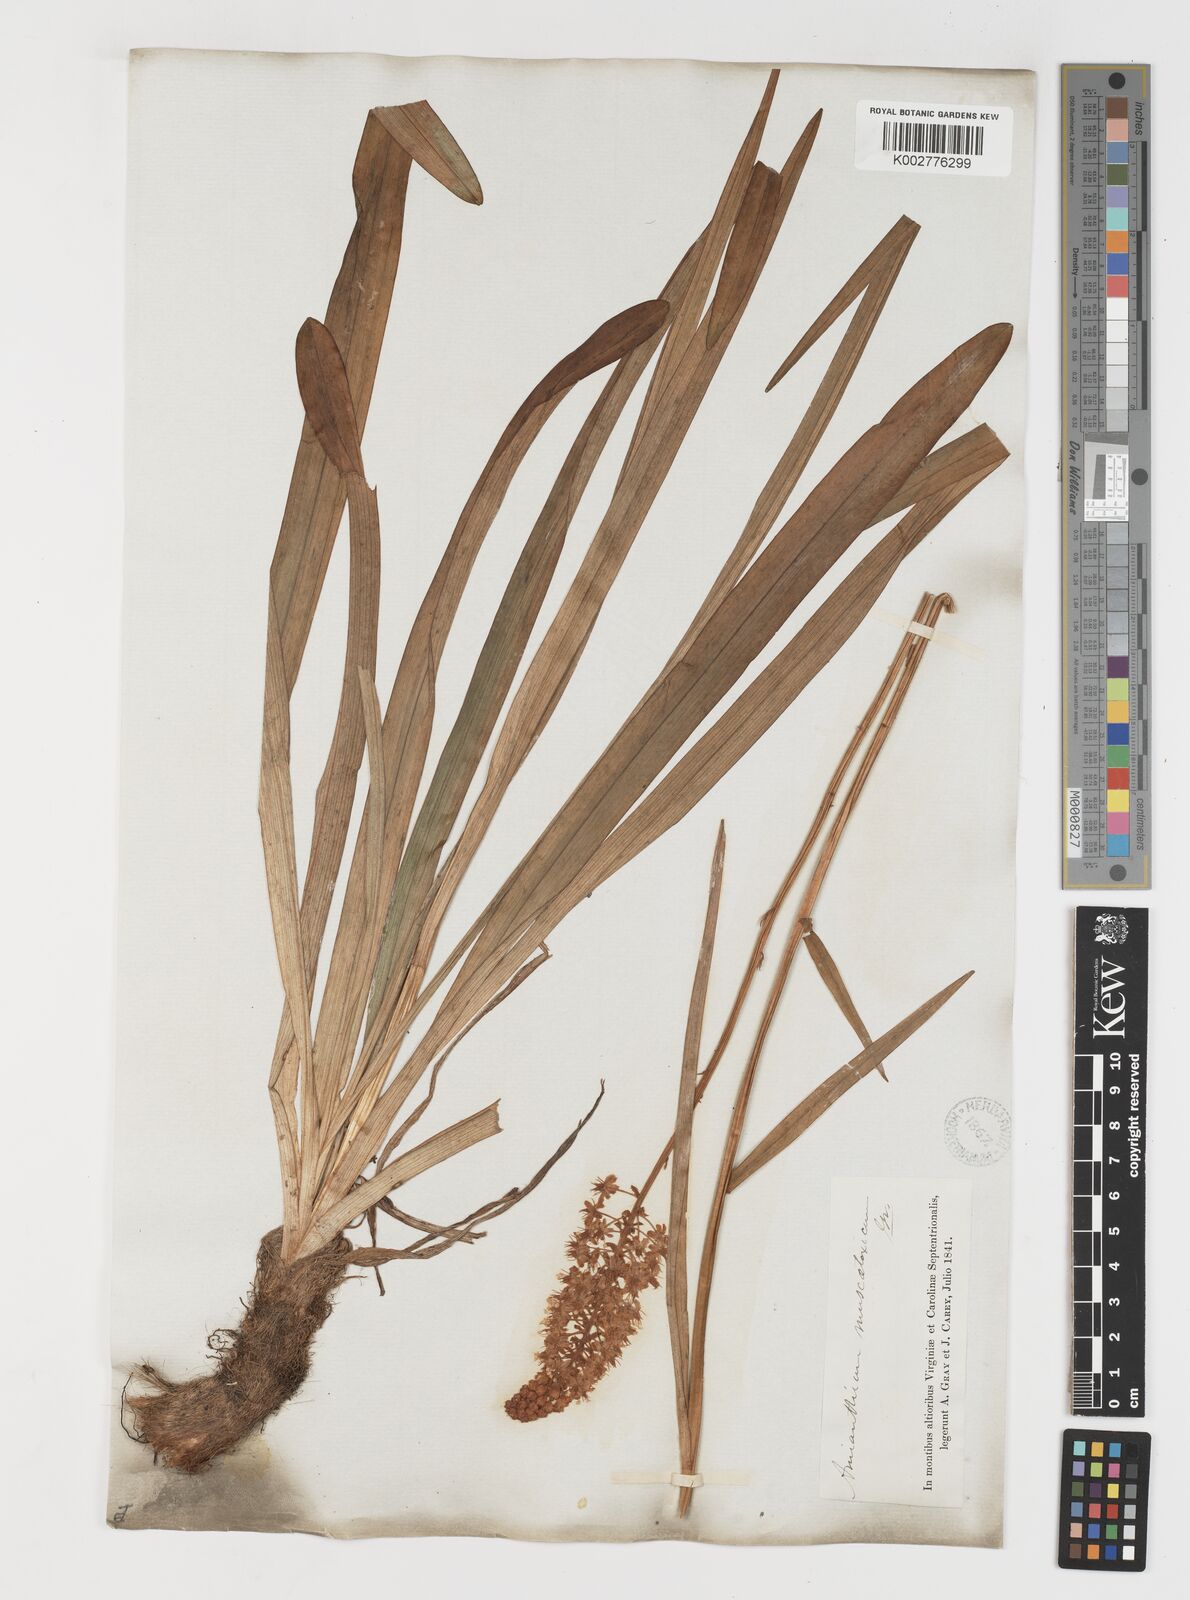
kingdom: Plantae
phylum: Tracheophyta
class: Liliopsida
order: Liliales
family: Melanthiaceae
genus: Amianthium
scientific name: Amianthium muscitoxicum
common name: Fly-poison
